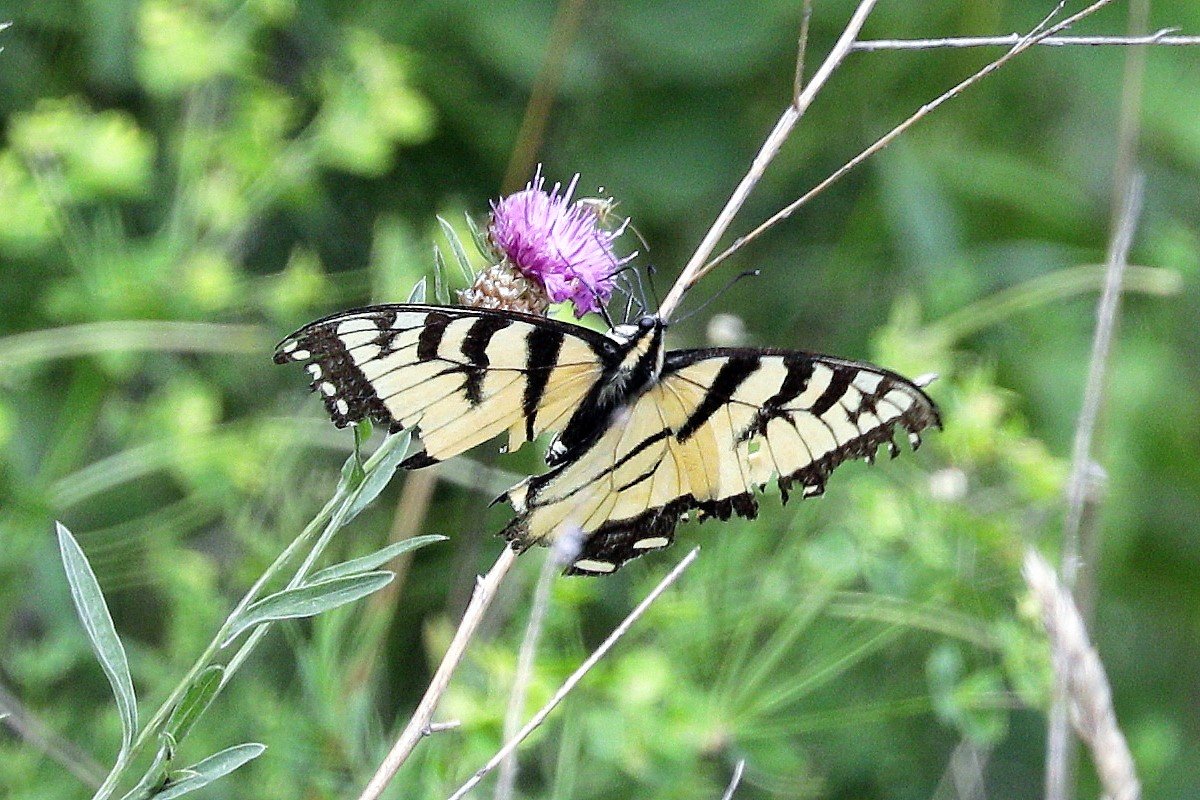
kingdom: Animalia
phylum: Arthropoda
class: Insecta
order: Lepidoptera
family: Papilionidae
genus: Pterourus
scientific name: Pterourus glaucus
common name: Eastern Tiger Swallowtail
